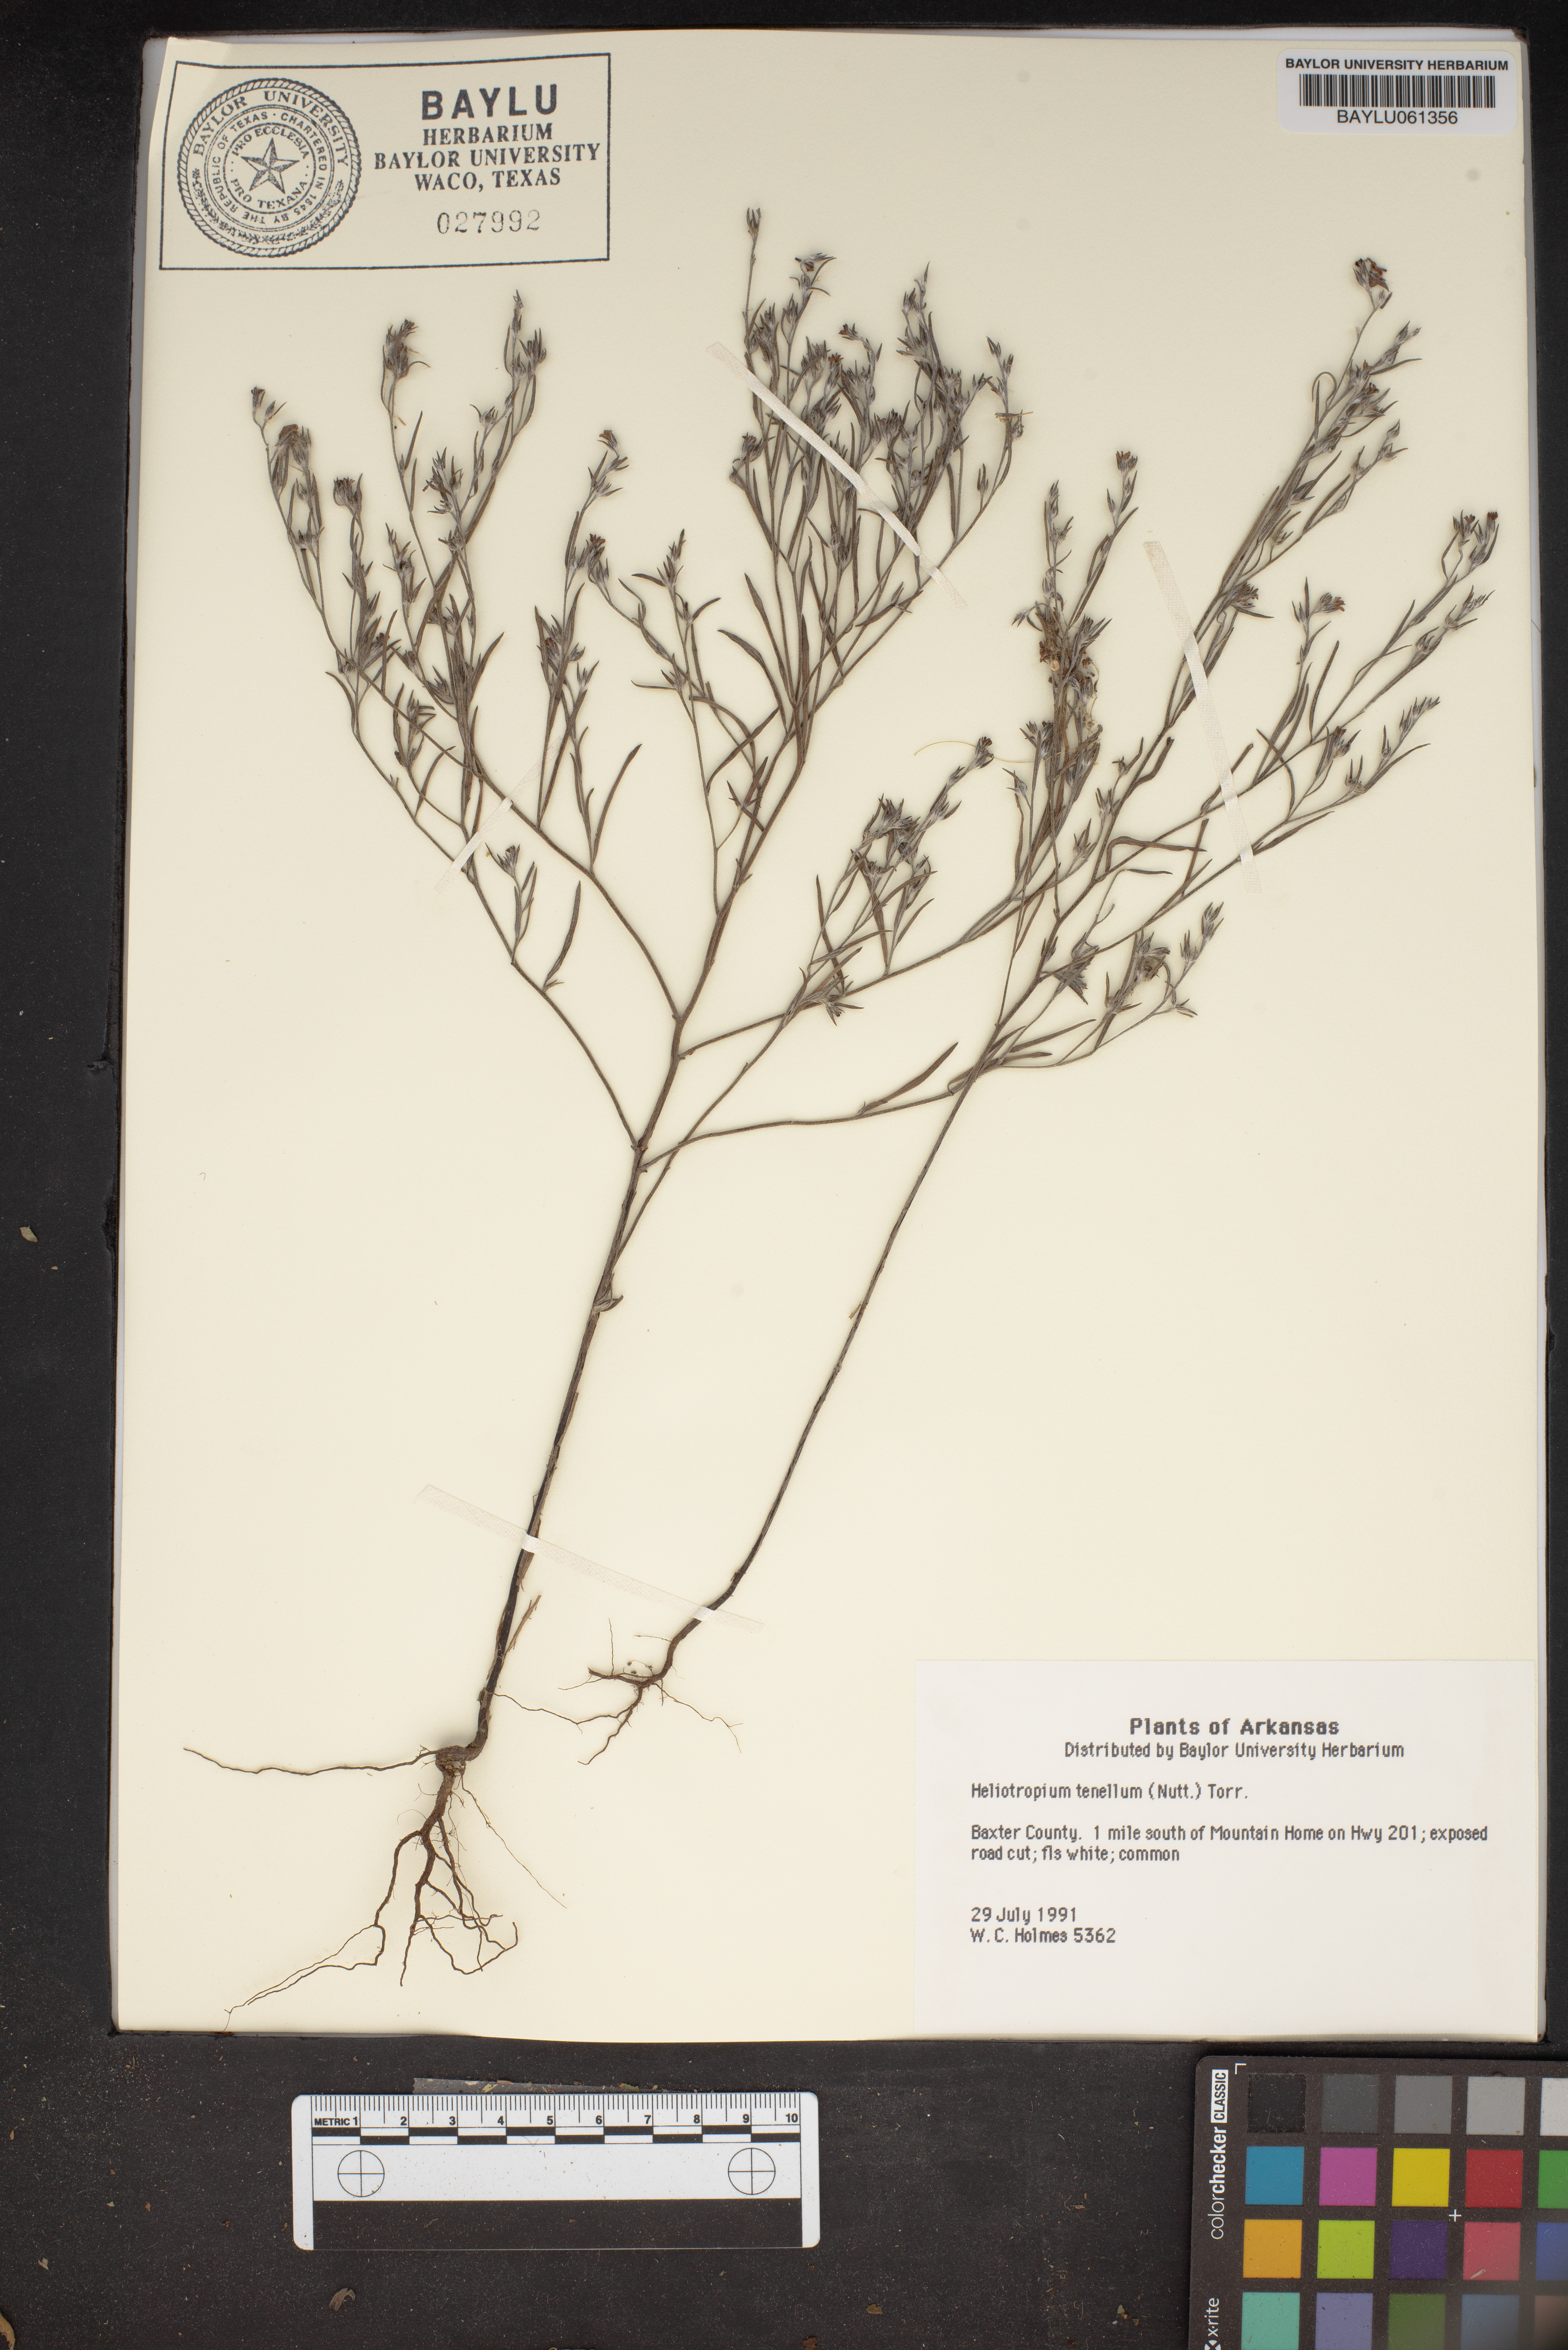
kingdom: Plantae
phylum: Tracheophyta
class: Magnoliopsida
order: Boraginales
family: Heliotropiaceae
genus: Euploca
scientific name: Euploca tenella
